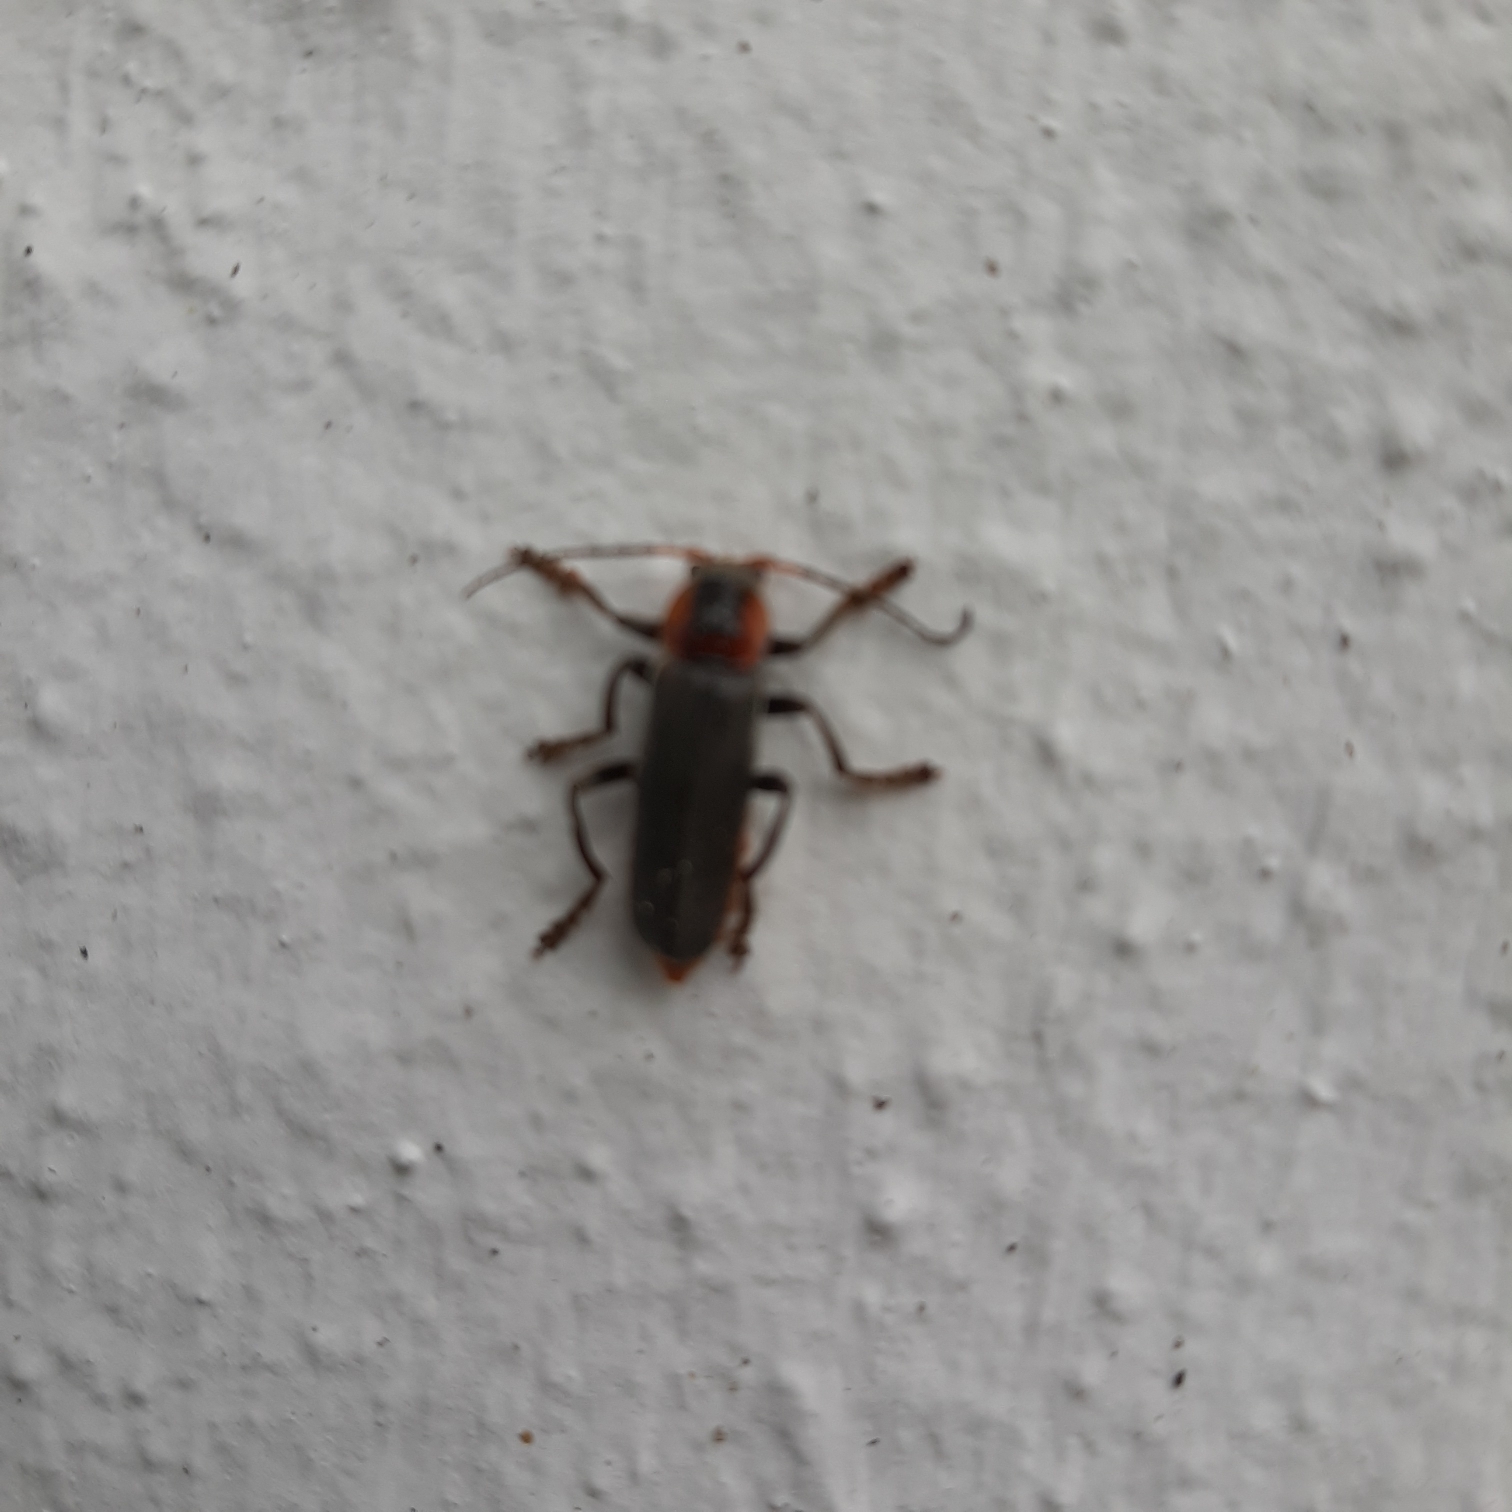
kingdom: Animalia
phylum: Arthropoda
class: Insecta
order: Coleoptera
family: Cantharidae
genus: Cantharis
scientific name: Cantharis fusca
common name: Stor blødvinge
